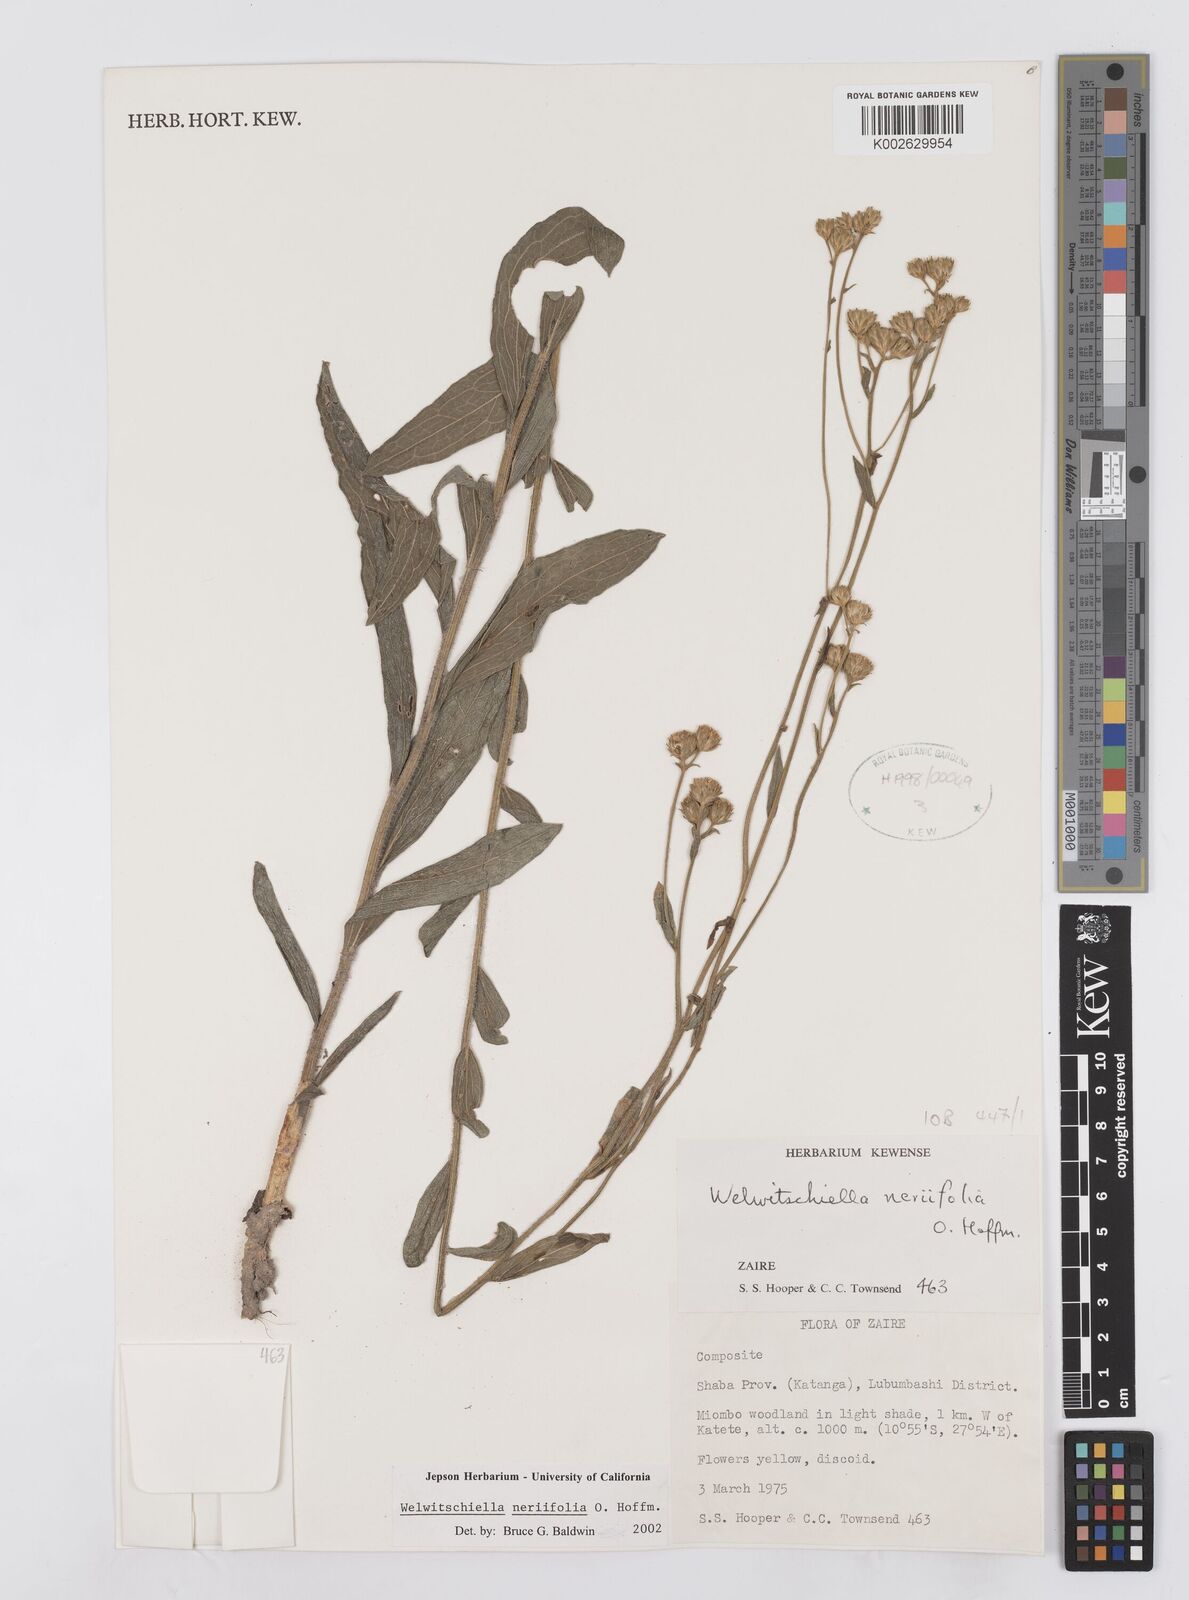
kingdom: Plantae
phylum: Tracheophyta
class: Magnoliopsida
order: Asterales
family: Asteraceae
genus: Welwitschiella
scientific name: Welwitschiella neriifolia
